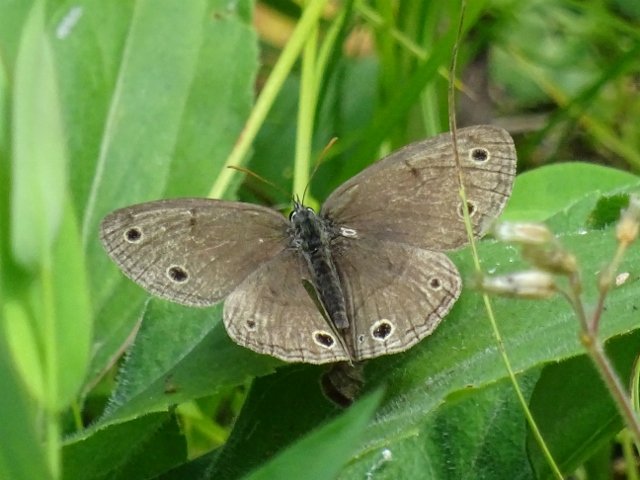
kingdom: Animalia
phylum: Arthropoda
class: Insecta
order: Lepidoptera
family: Nymphalidae
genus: Euptychia
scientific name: Euptychia cymela
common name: Little Wood Satyr
